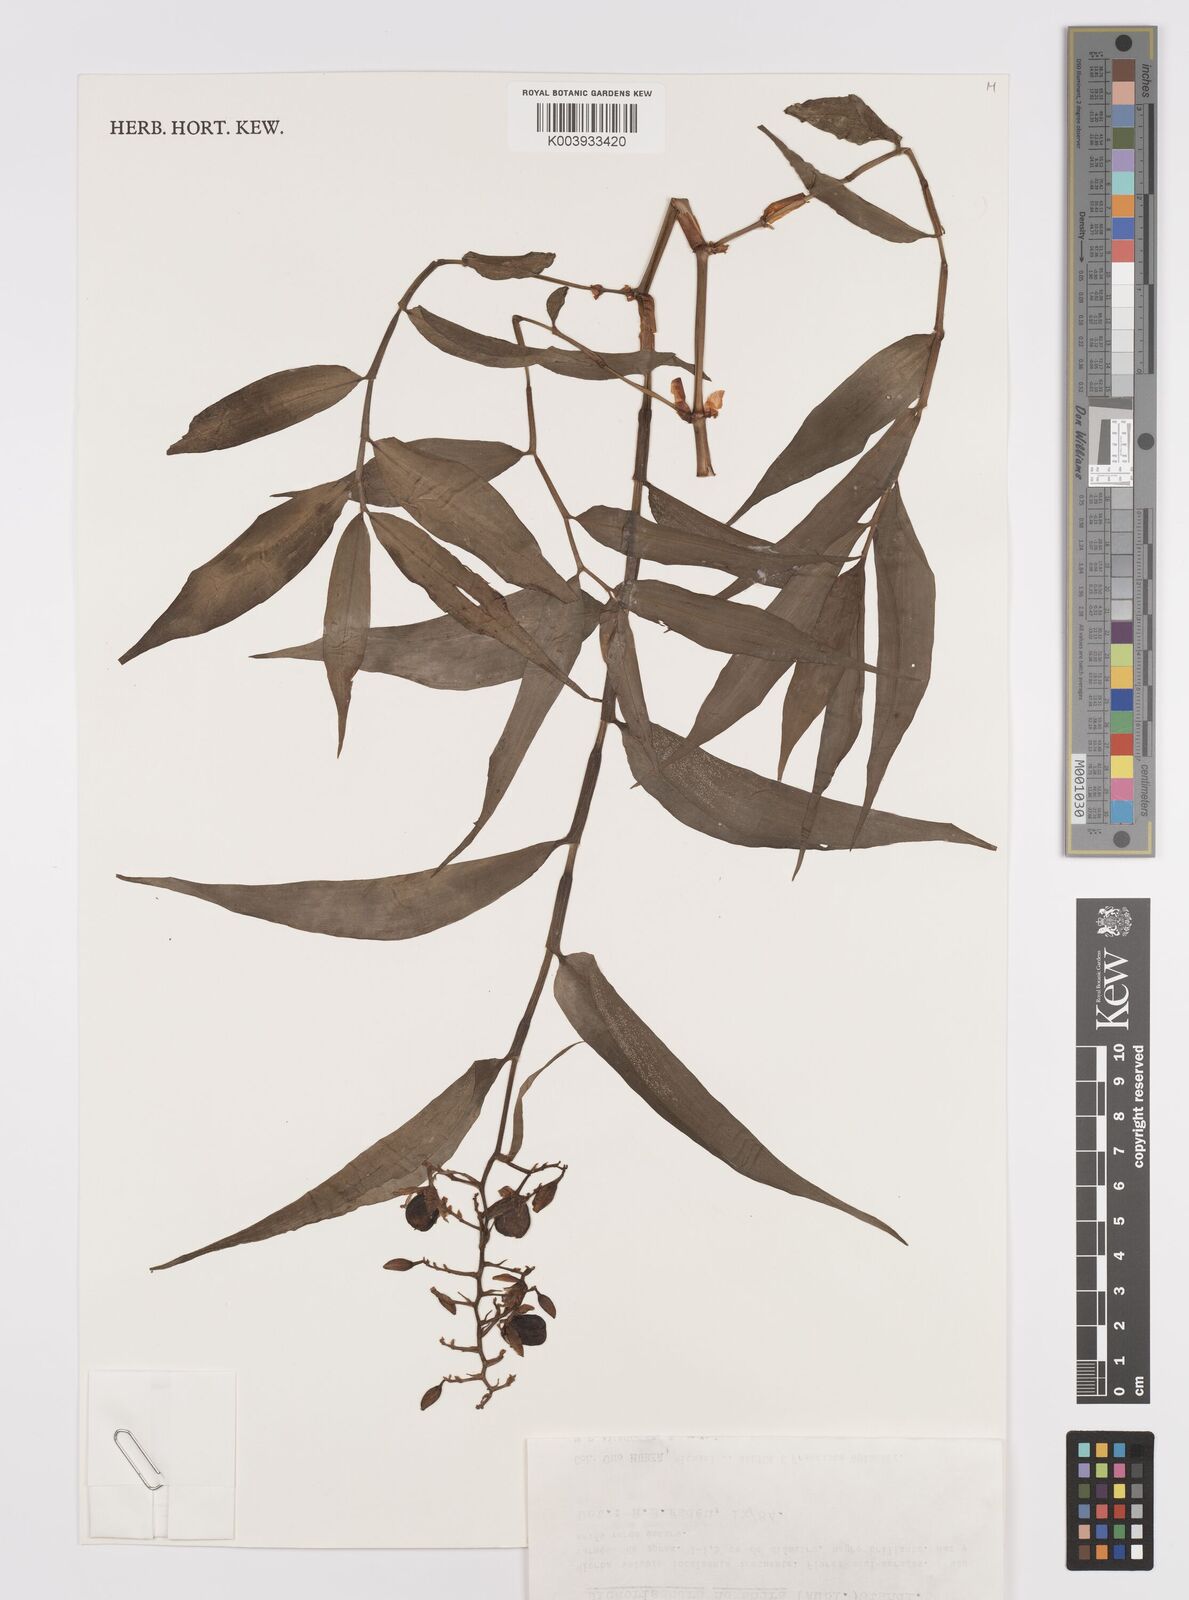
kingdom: Plantae
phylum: Tracheophyta
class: Liliopsida
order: Commelinales
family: Commelinaceae
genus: Dichorisandra
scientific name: Dichorisandra hexandra
